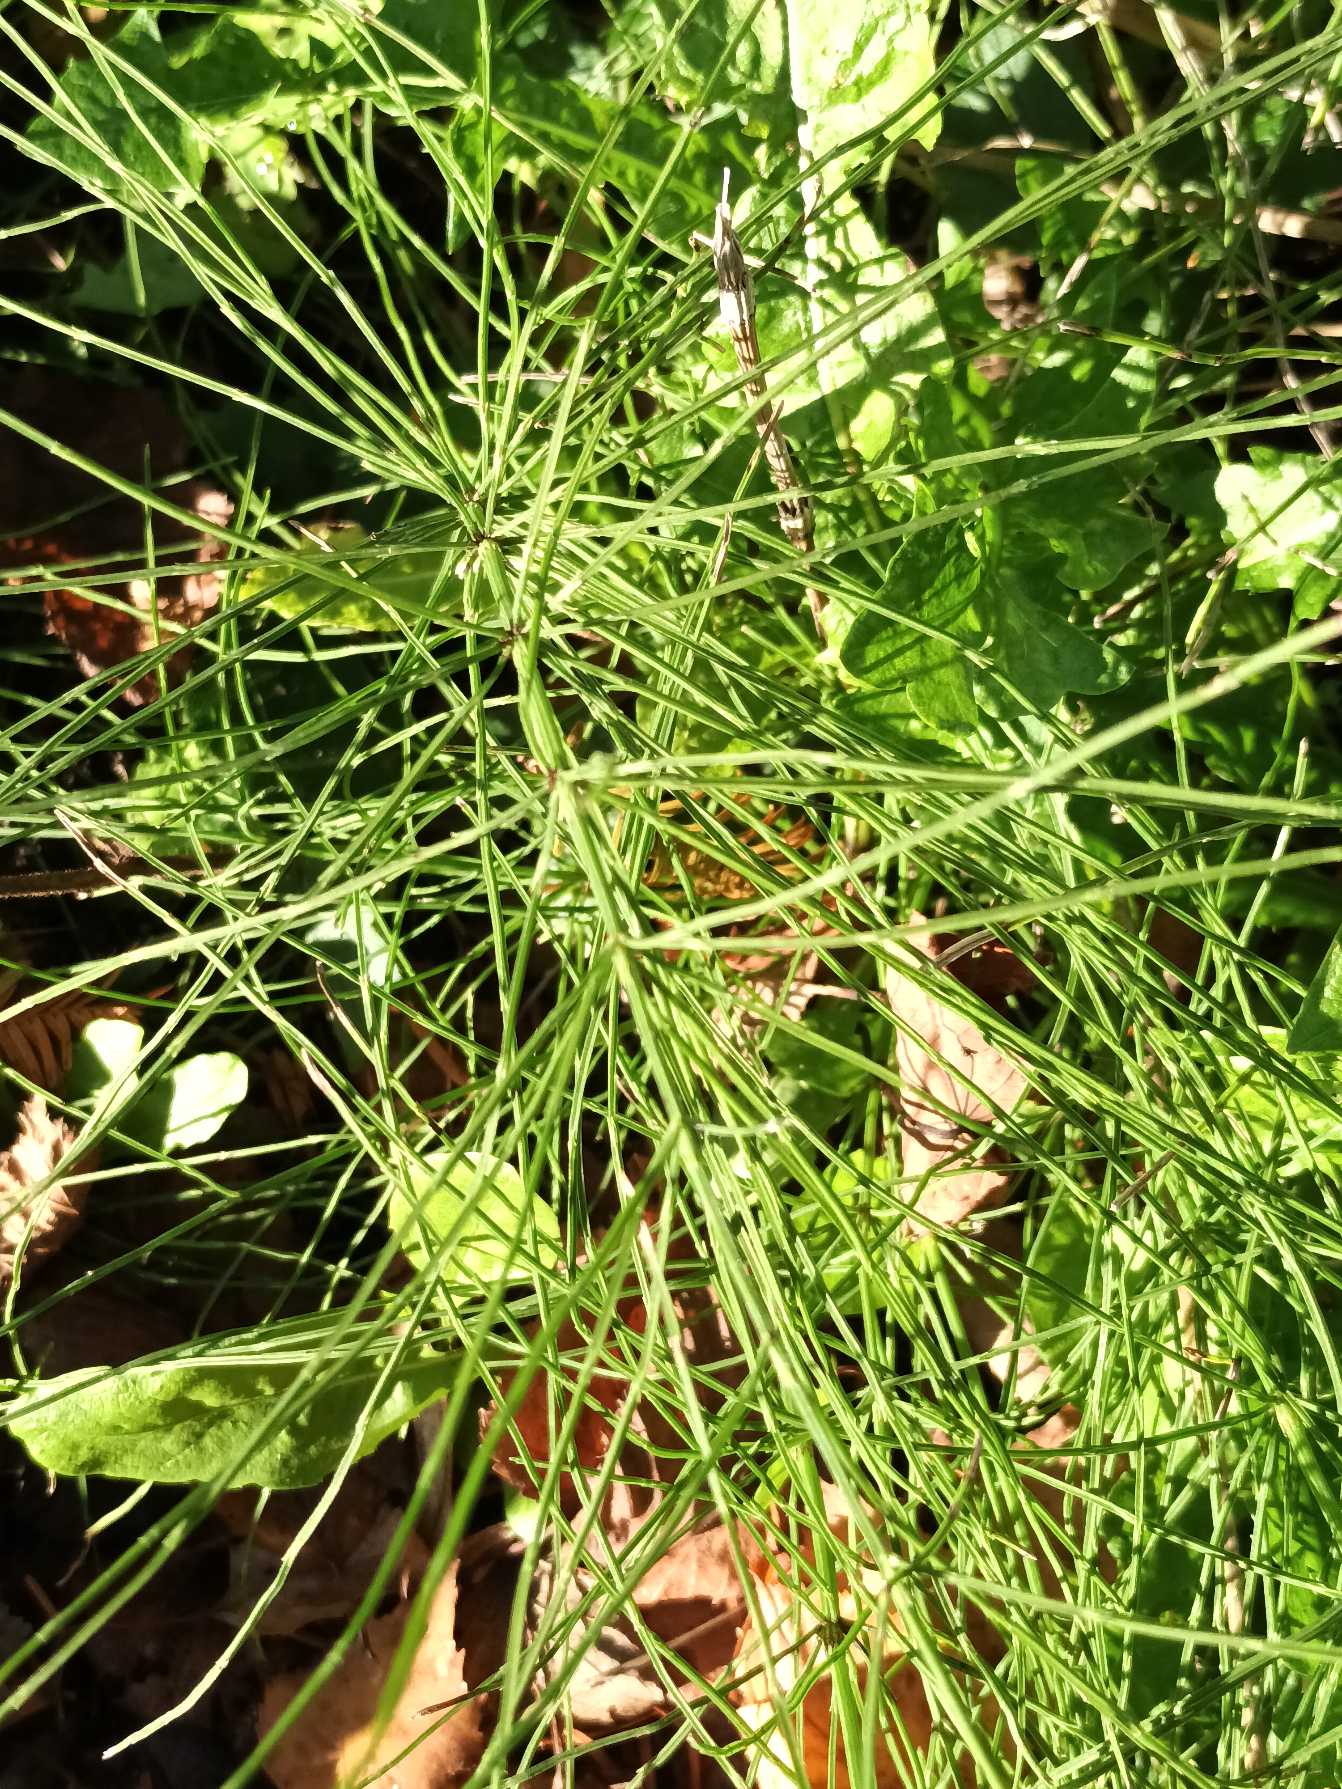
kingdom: Plantae
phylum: Tracheophyta
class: Polypodiopsida
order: Equisetales
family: Equisetaceae
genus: Equisetum
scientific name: Equisetum arvense
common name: Ager-padderok
